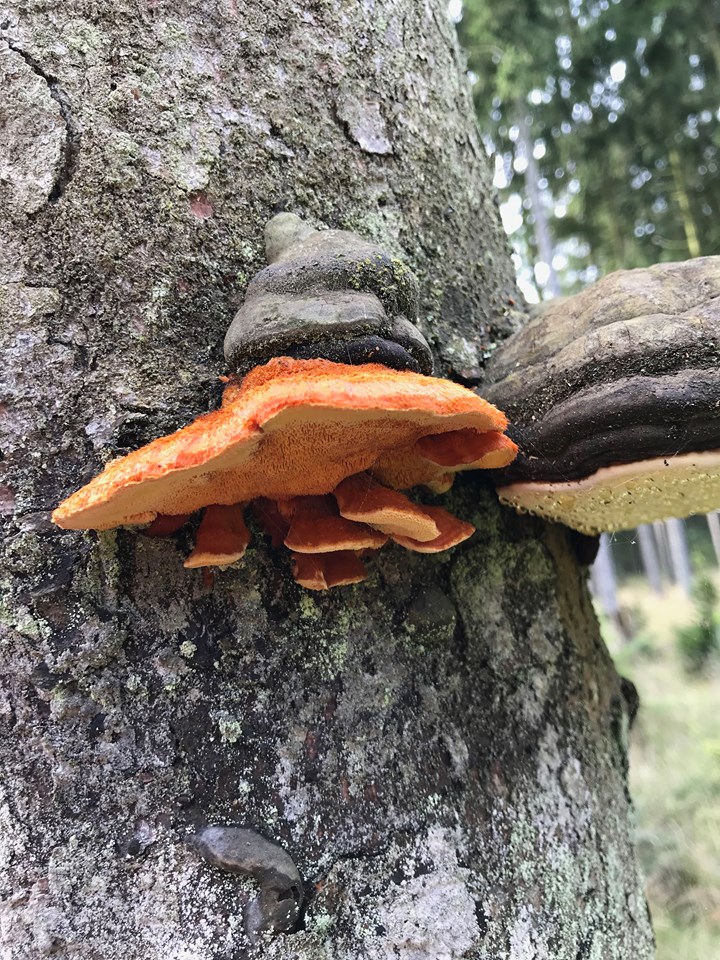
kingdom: Fungi
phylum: Basidiomycota
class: Agaricomycetes
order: Polyporales
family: Pycnoporellaceae
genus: Pycnoporellus
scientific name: Pycnoporellus fulgens
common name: flammeporesvamp
